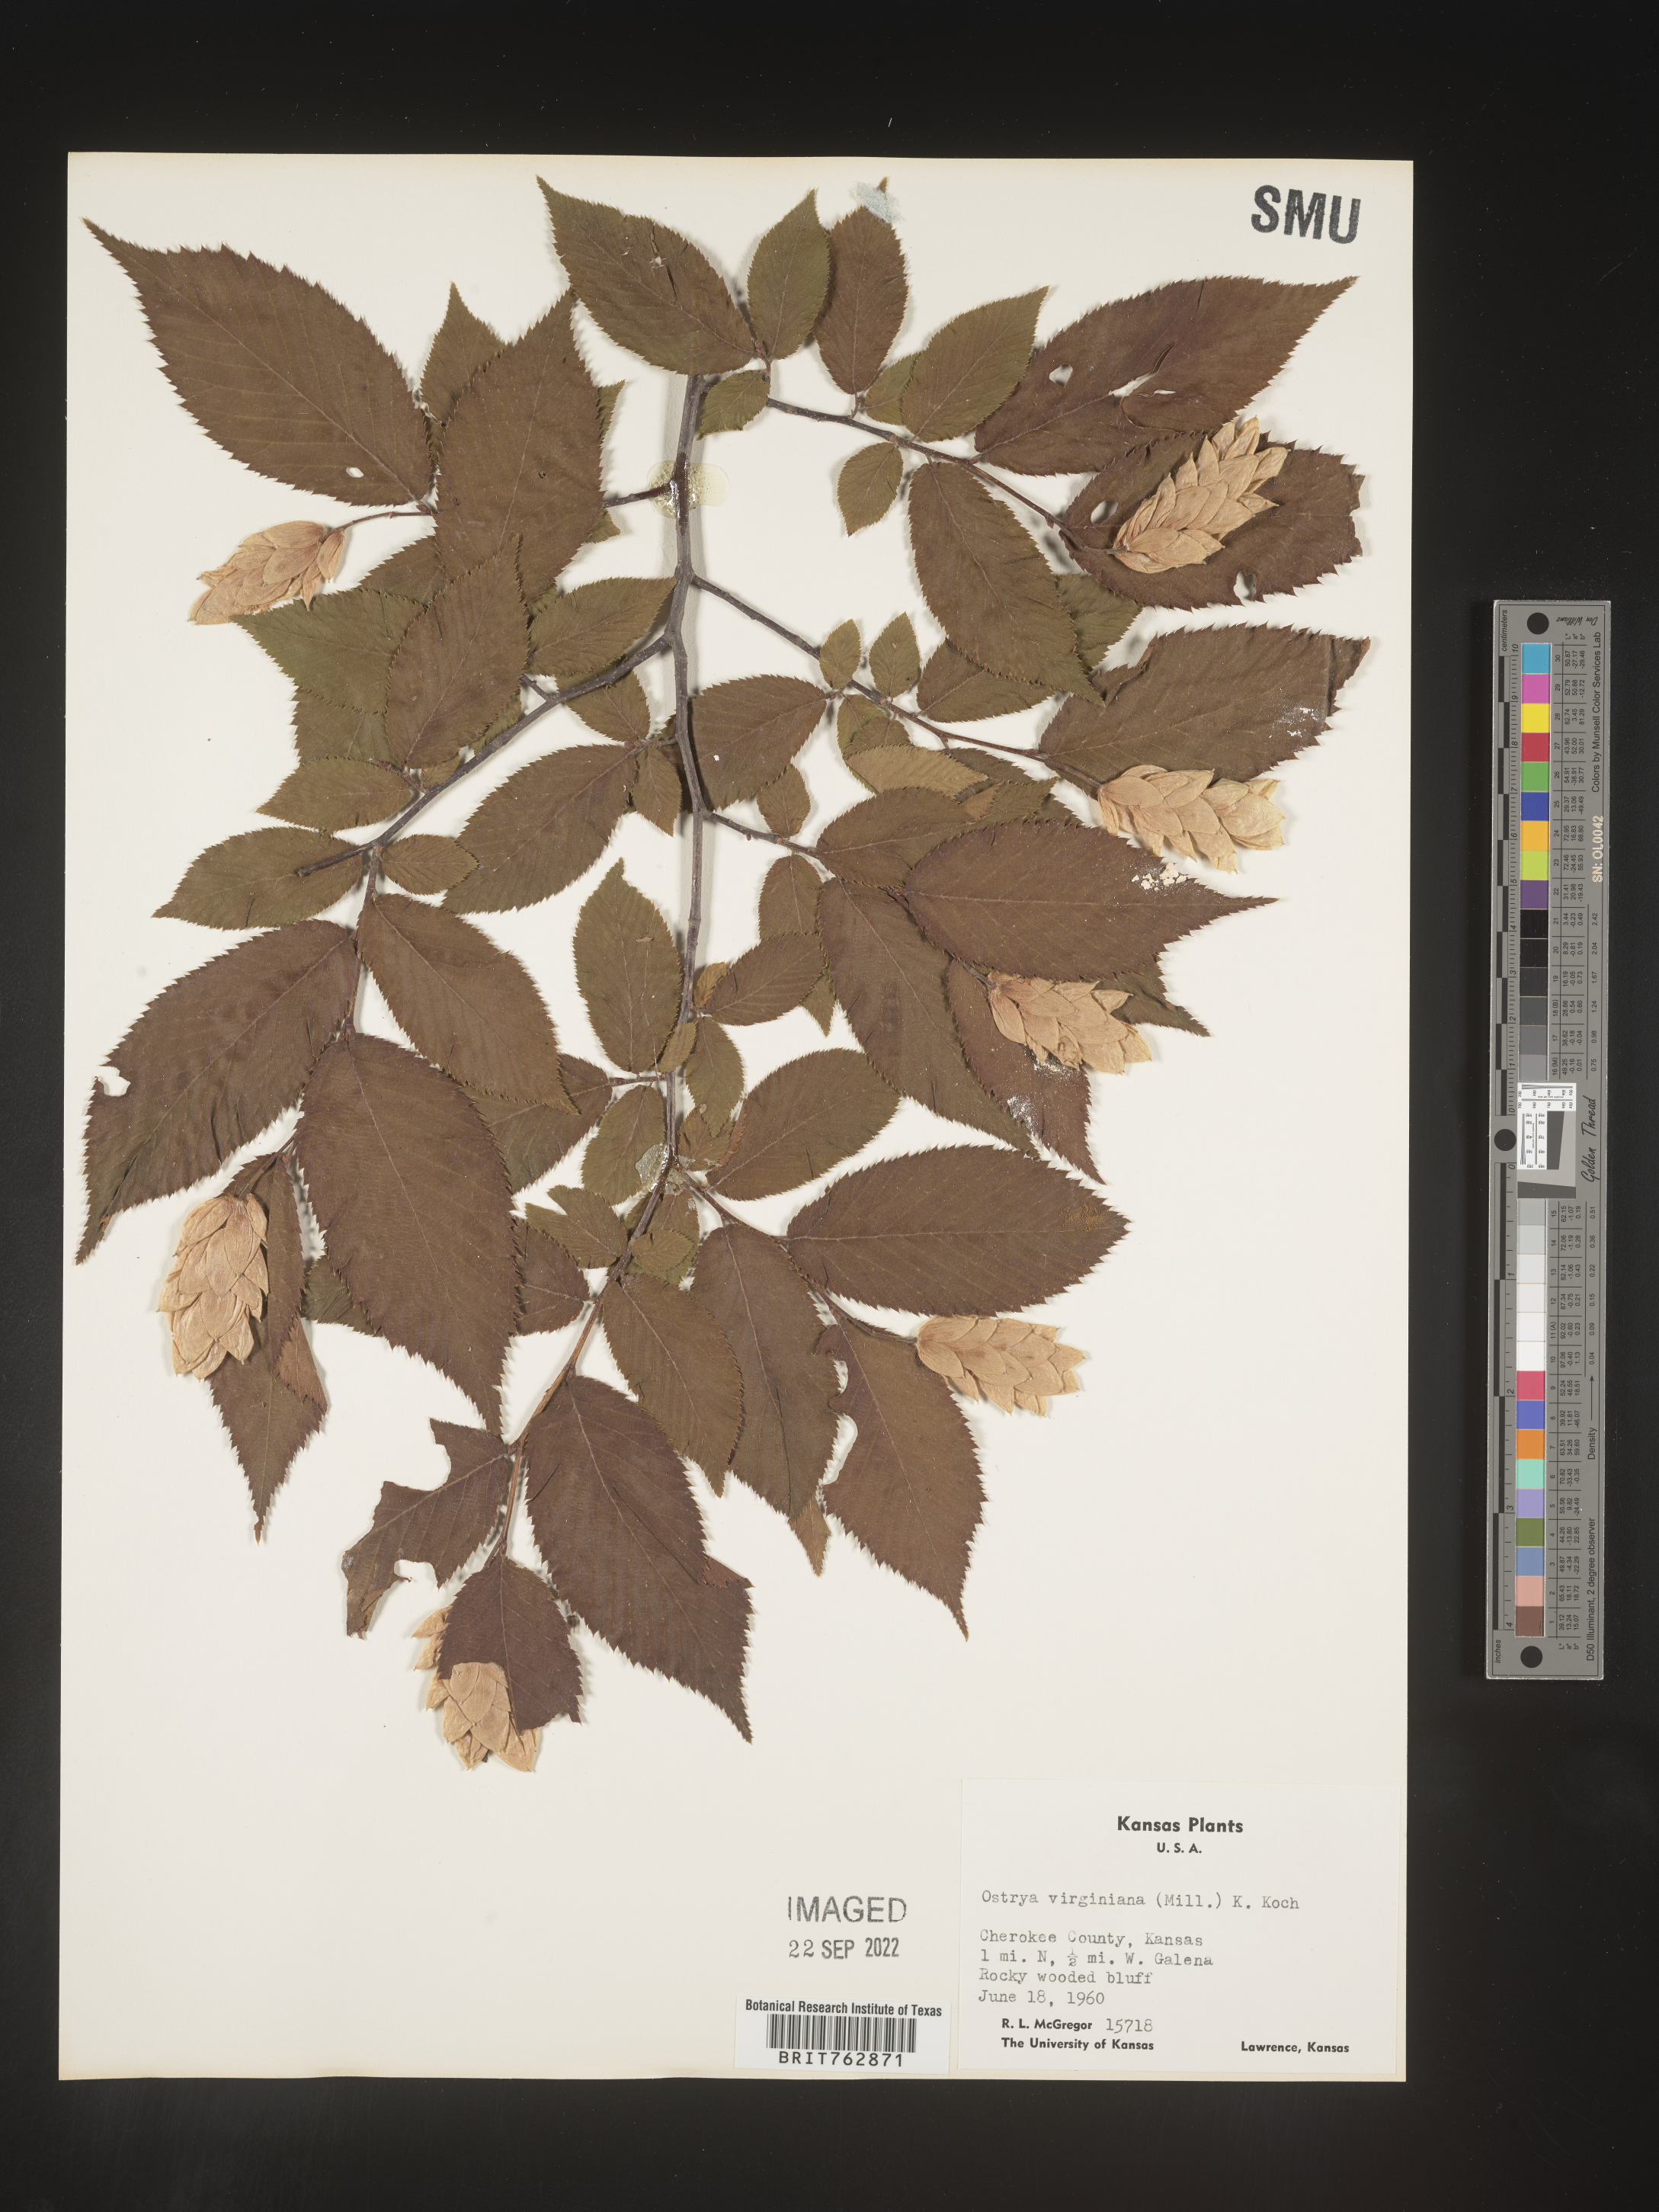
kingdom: Plantae
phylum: Tracheophyta
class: Magnoliopsida
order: Fagales
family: Betulaceae
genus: Ostrya
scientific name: Ostrya virginiana
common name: Ironwood
